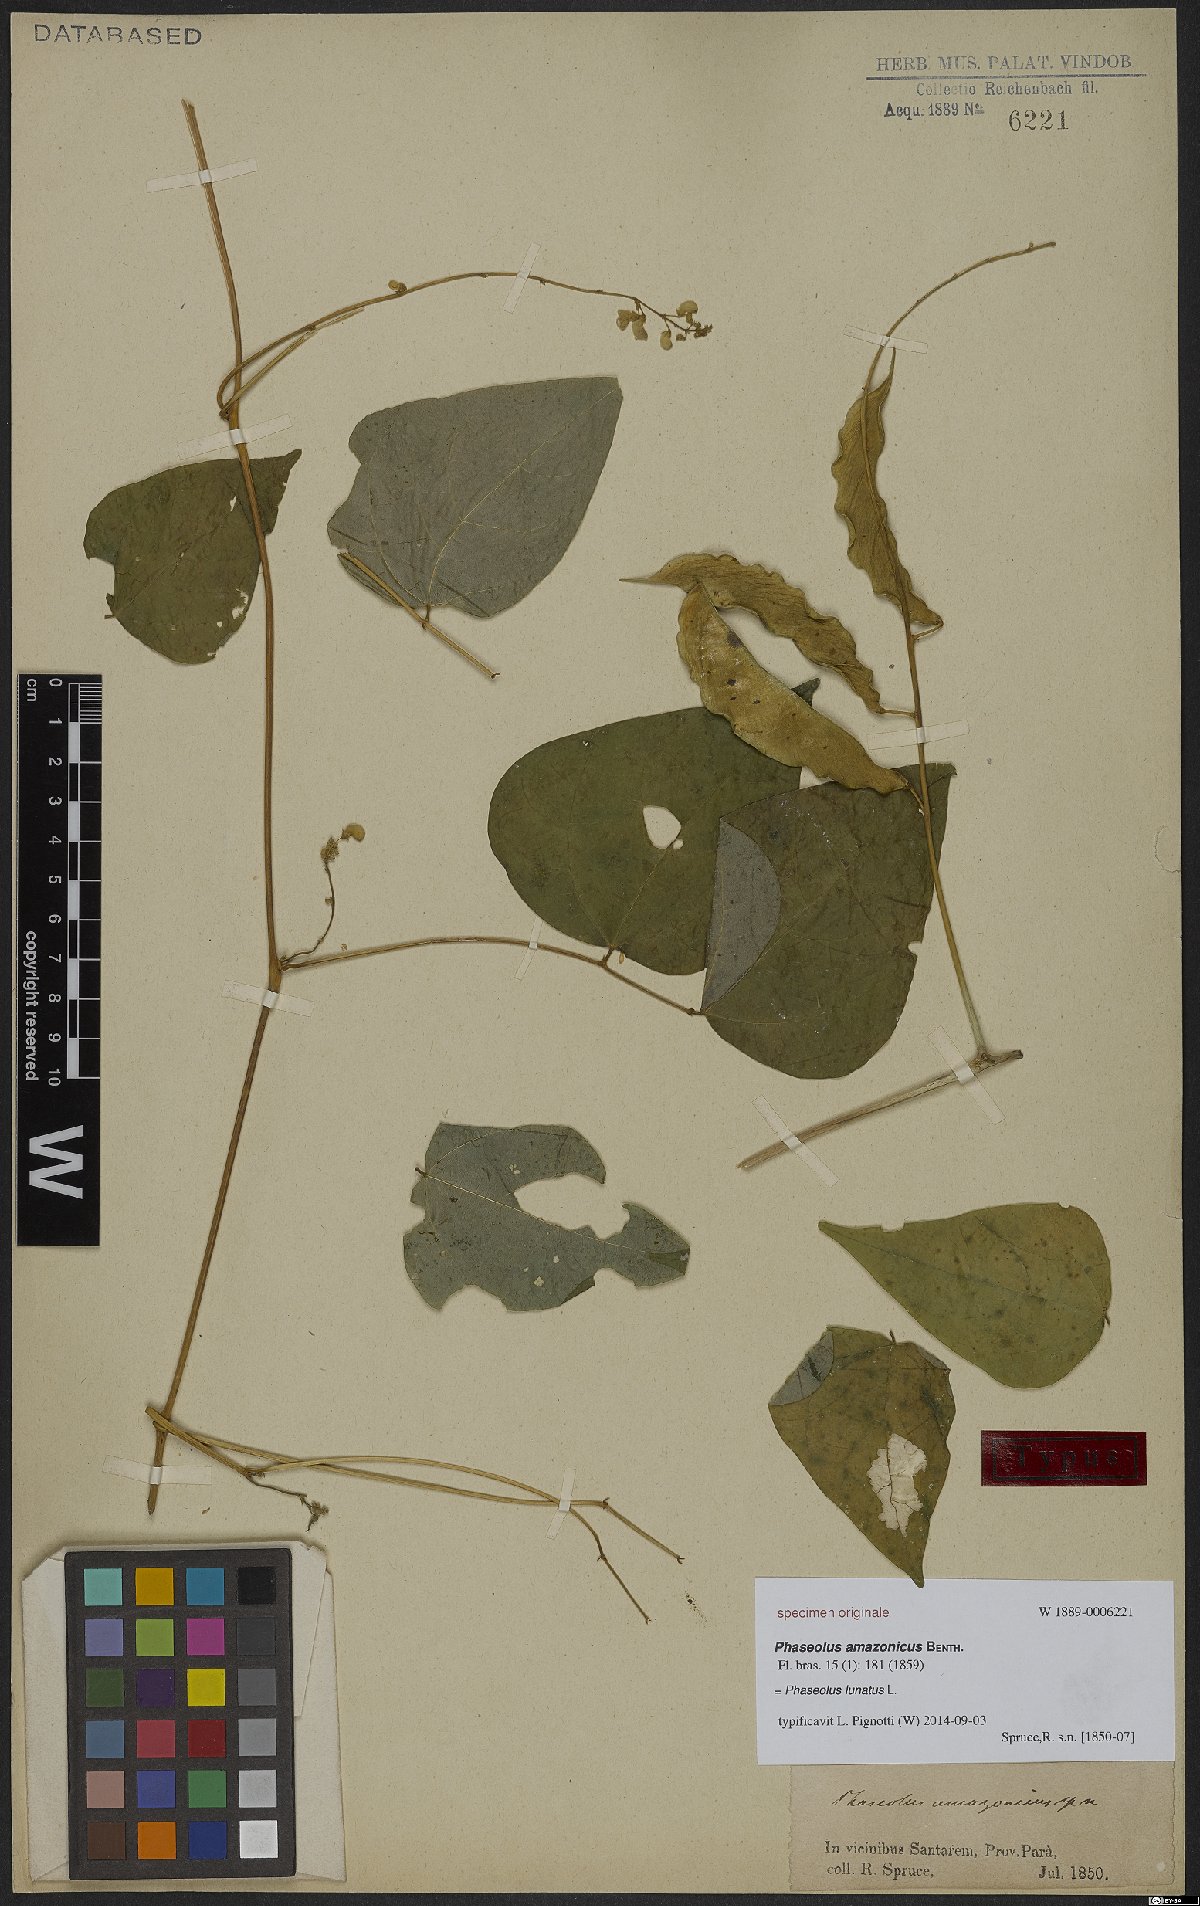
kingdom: Plantae
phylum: Tracheophyta
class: Magnoliopsida
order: Fabales
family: Fabaceae
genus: Phaseolus
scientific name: Phaseolus lunatus
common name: Sieva bean
